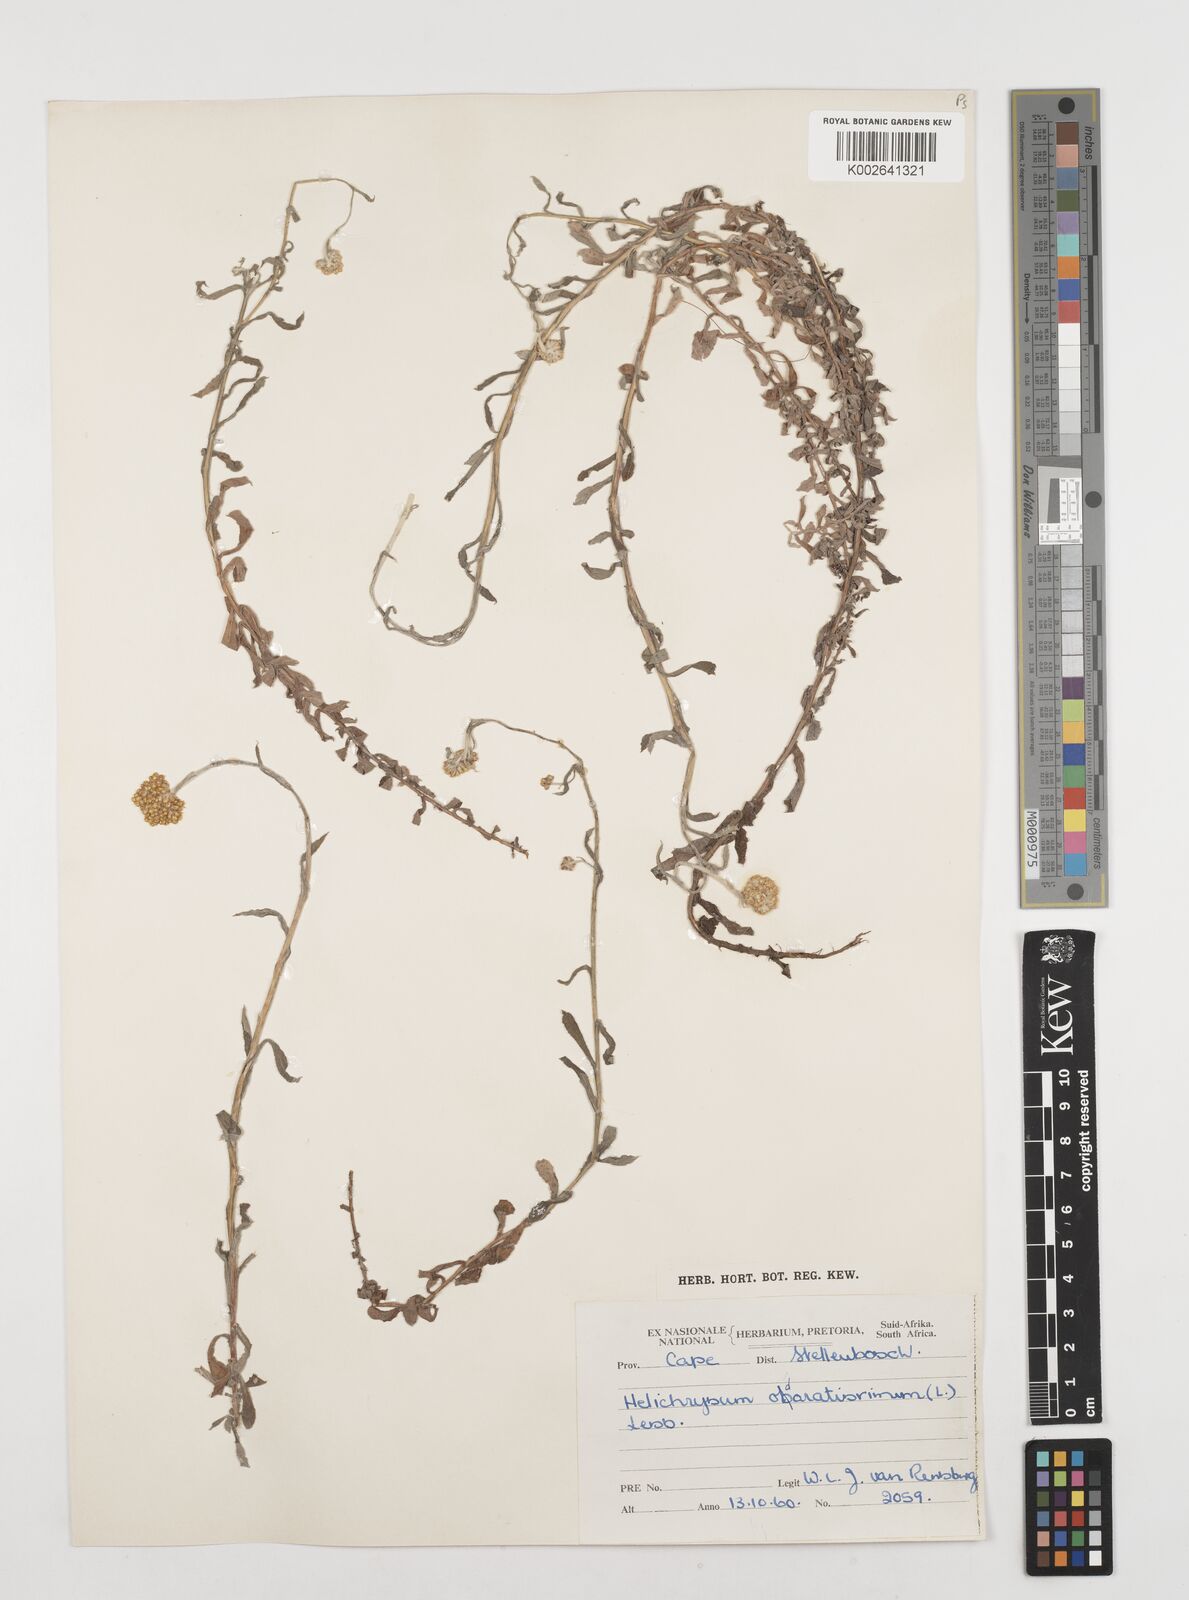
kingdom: Plantae
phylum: Tracheophyta
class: Magnoliopsida
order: Asterales
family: Asteraceae
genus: Helichrysum
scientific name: Helichrysum odoratissimum
